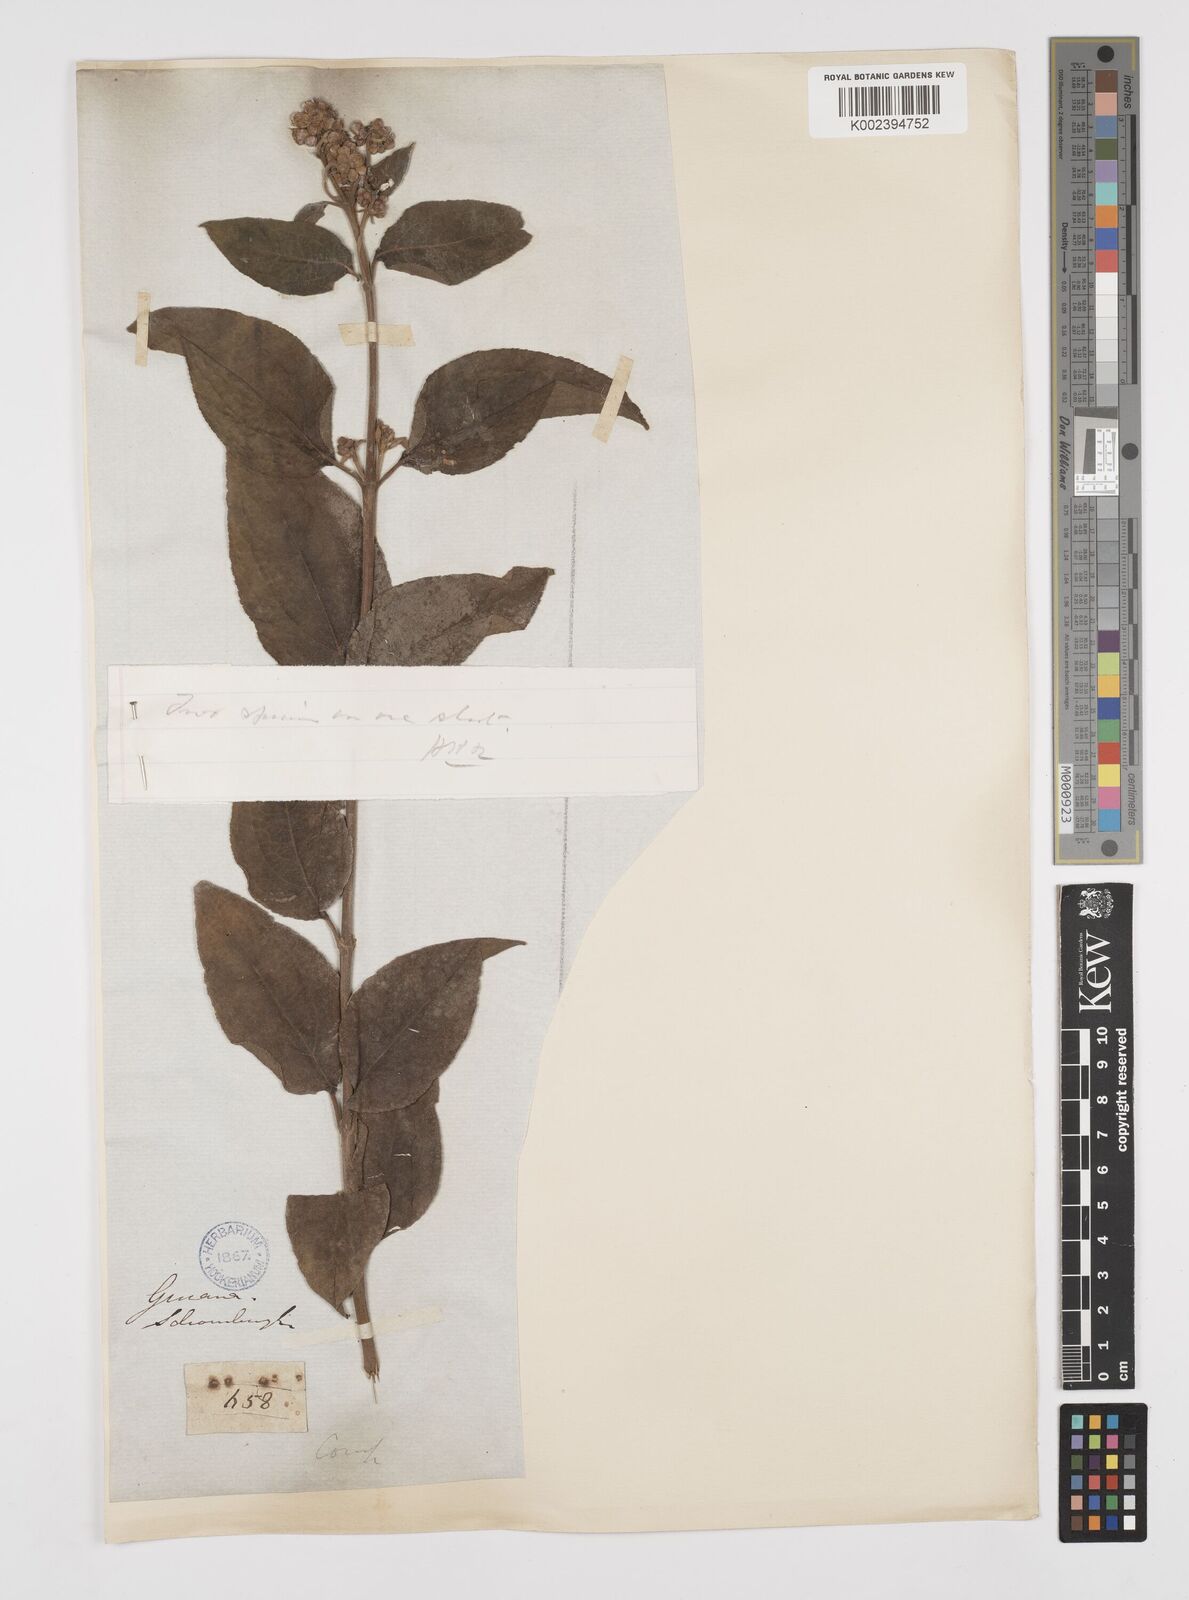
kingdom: Plantae
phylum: Tracheophyta
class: Magnoliopsida
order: Asterales
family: Asteraceae
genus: Clibadium
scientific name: Clibadium surinamense
